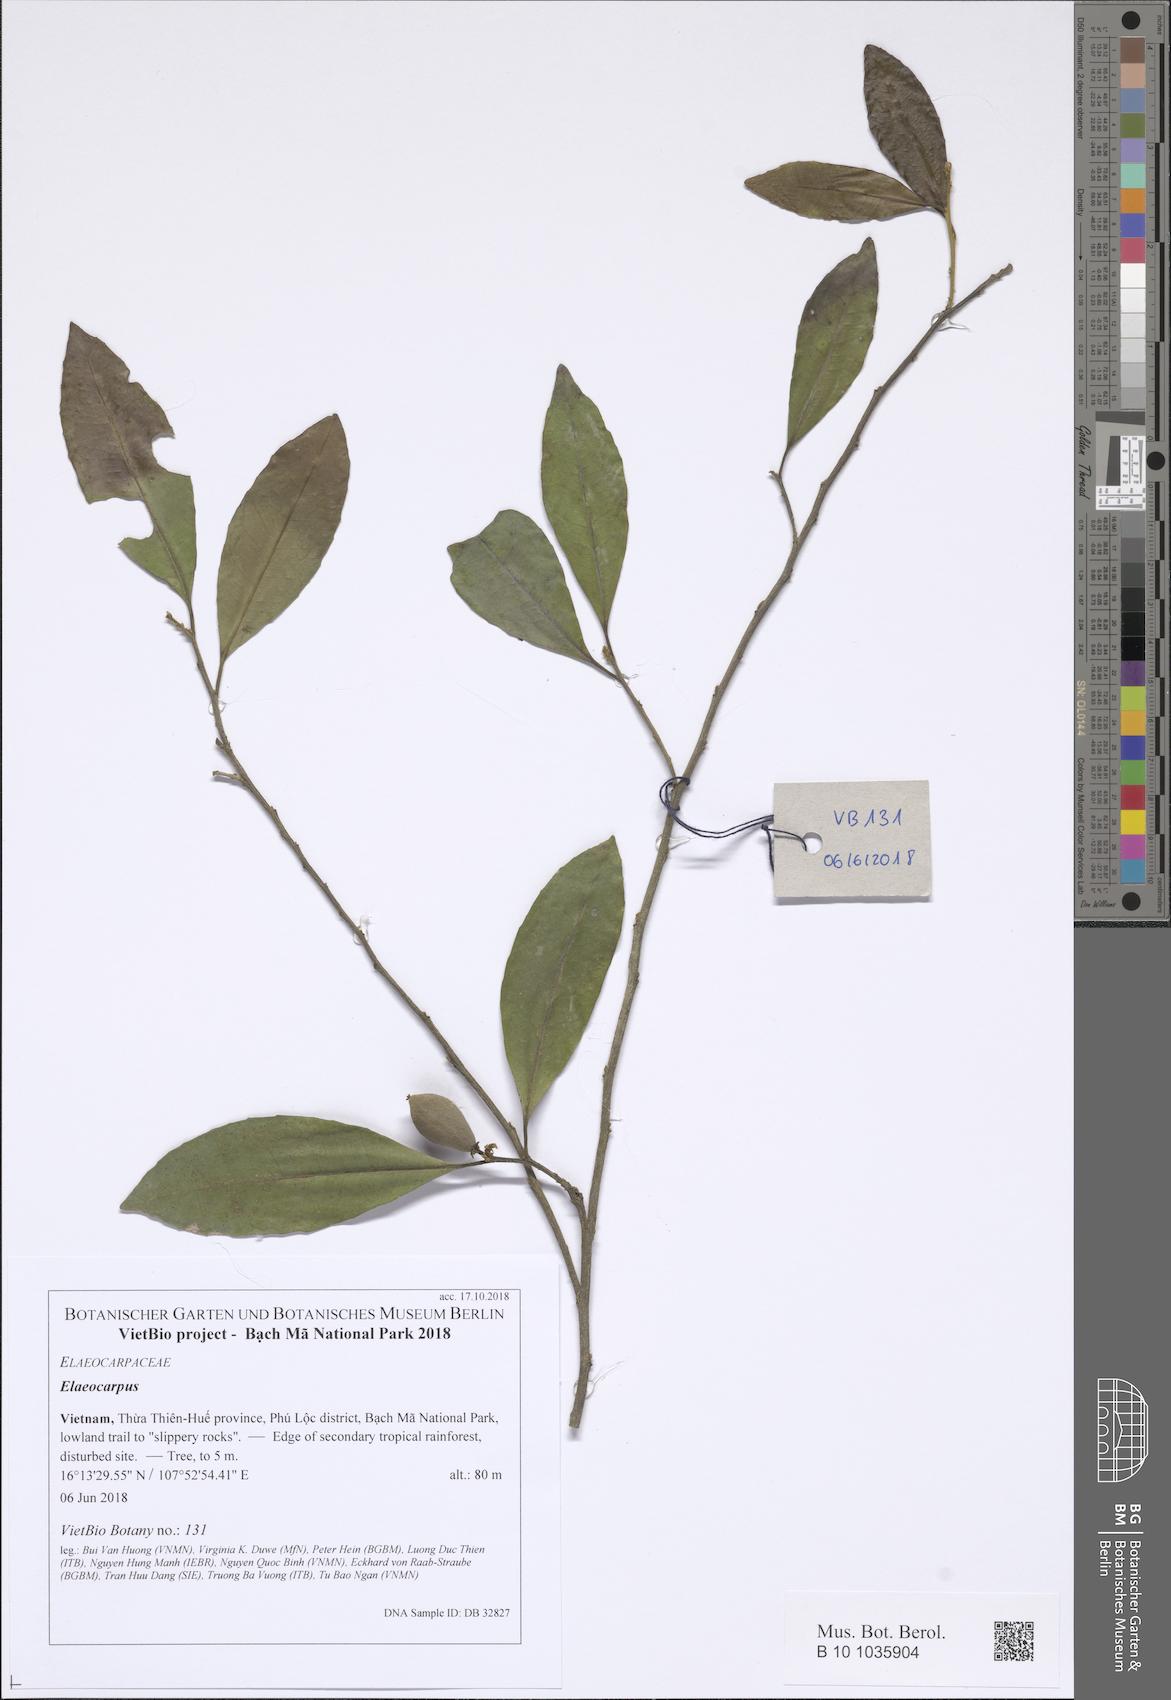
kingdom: Plantae
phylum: Tracheophyta
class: Magnoliopsida
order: Oxalidales
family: Elaeocarpaceae
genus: Elaeocarpus
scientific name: Elaeocarpus
